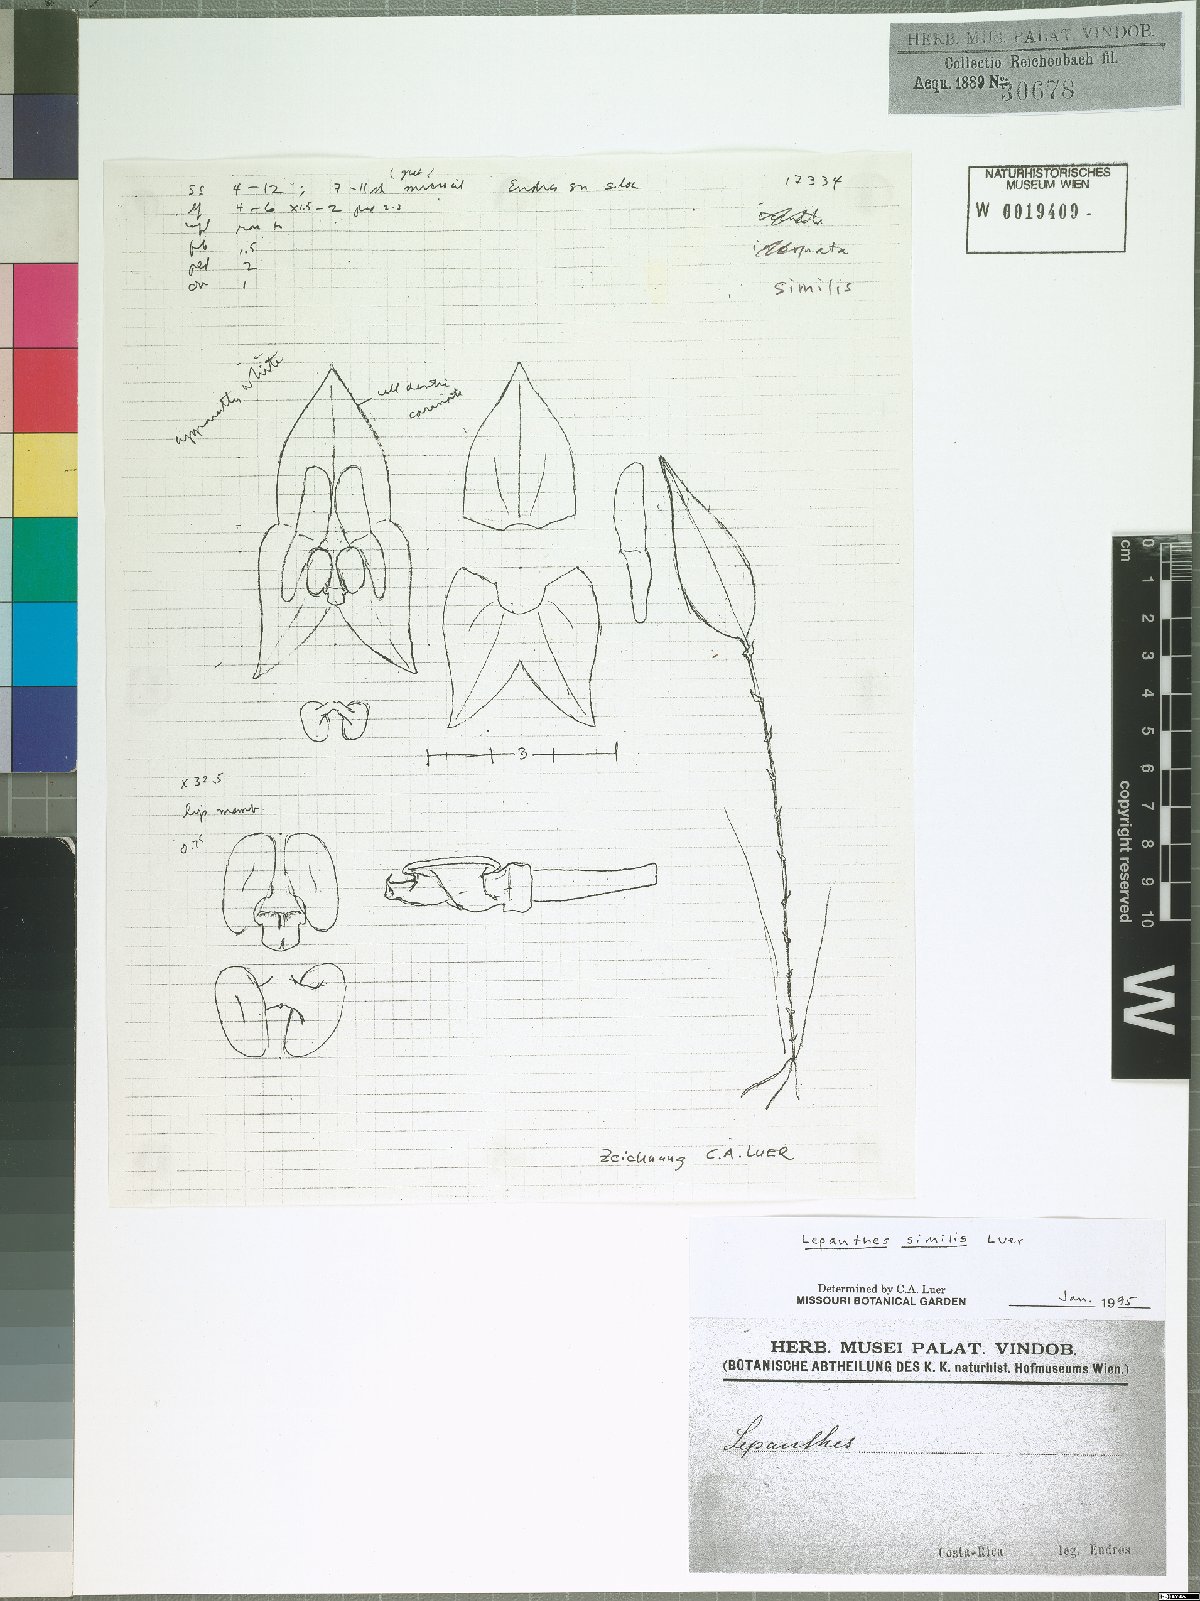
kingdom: Plantae
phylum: Tracheophyta
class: Liliopsida
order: Asparagales
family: Orchidaceae
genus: Lepanthes
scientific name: Lepanthes similis
